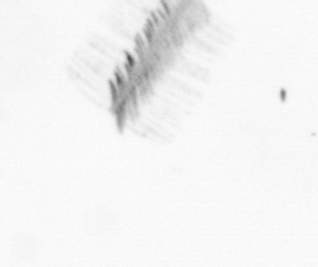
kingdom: Chromista
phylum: Ochrophyta
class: Bacillariophyceae
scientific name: Bacillariophyceae
